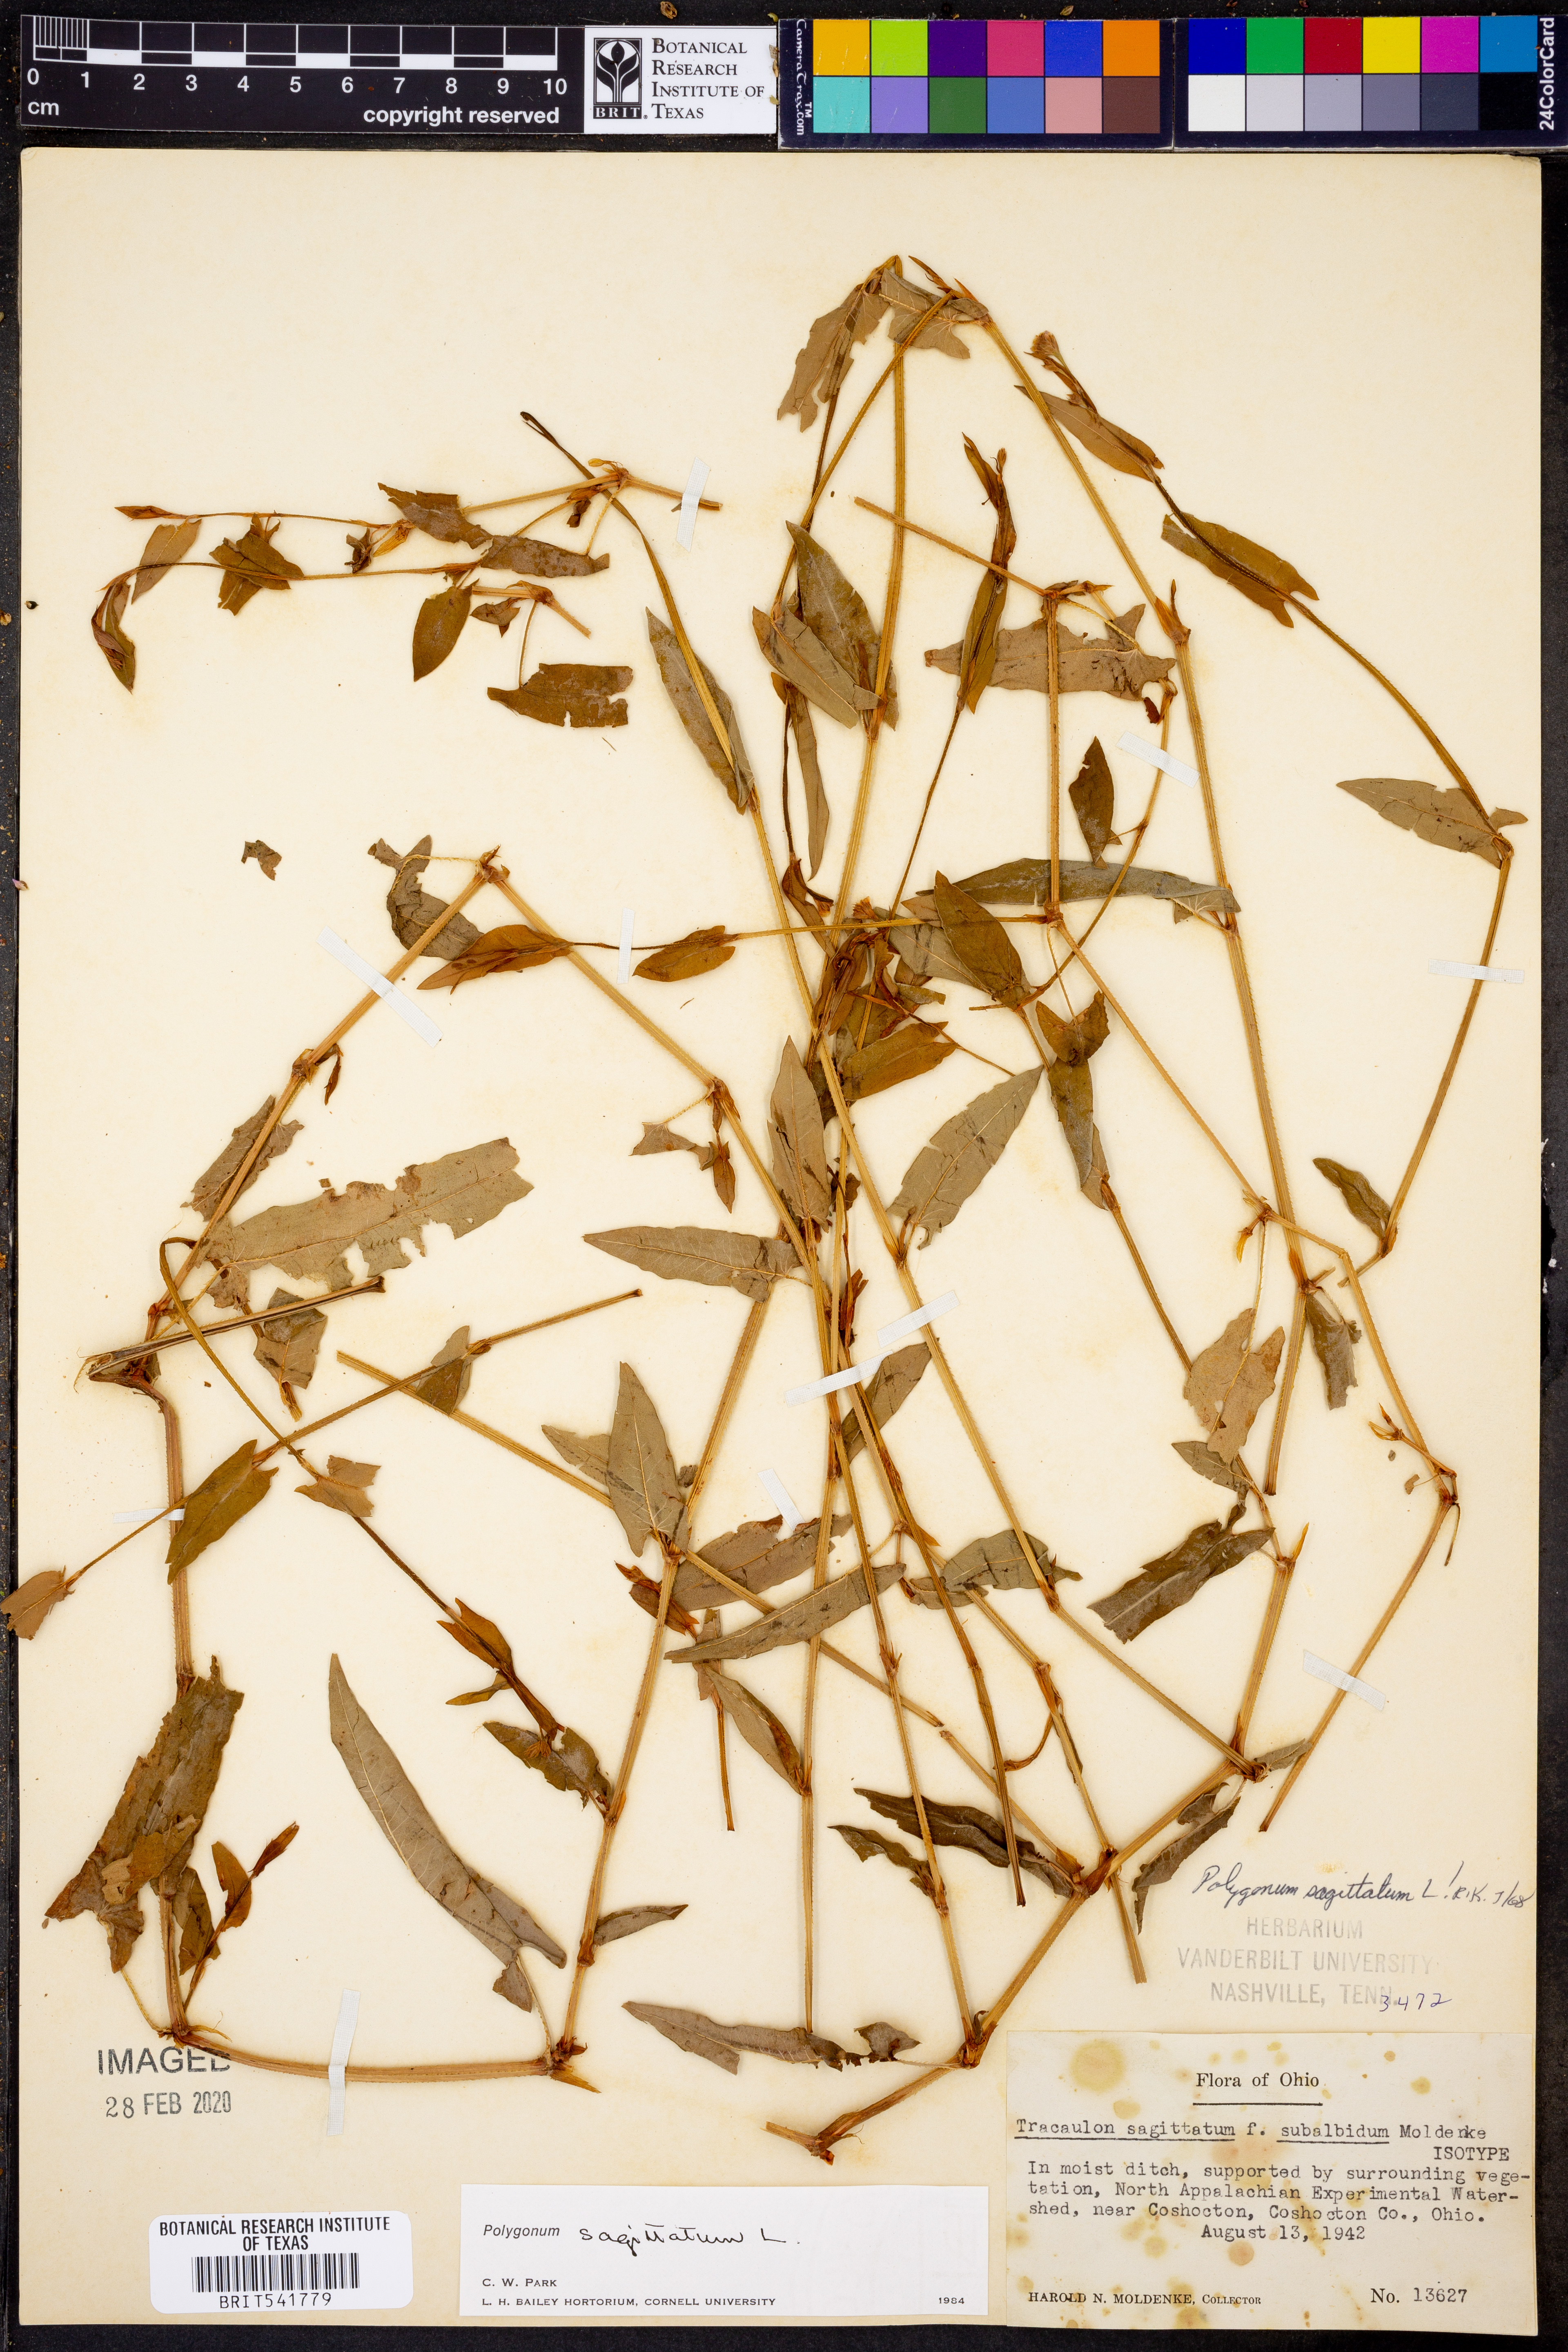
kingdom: Plantae
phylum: Tracheophyta
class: Magnoliopsida
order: Caryophyllales
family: Polygonaceae
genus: Persicaria
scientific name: Persicaria sagittata
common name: American tearthumb
